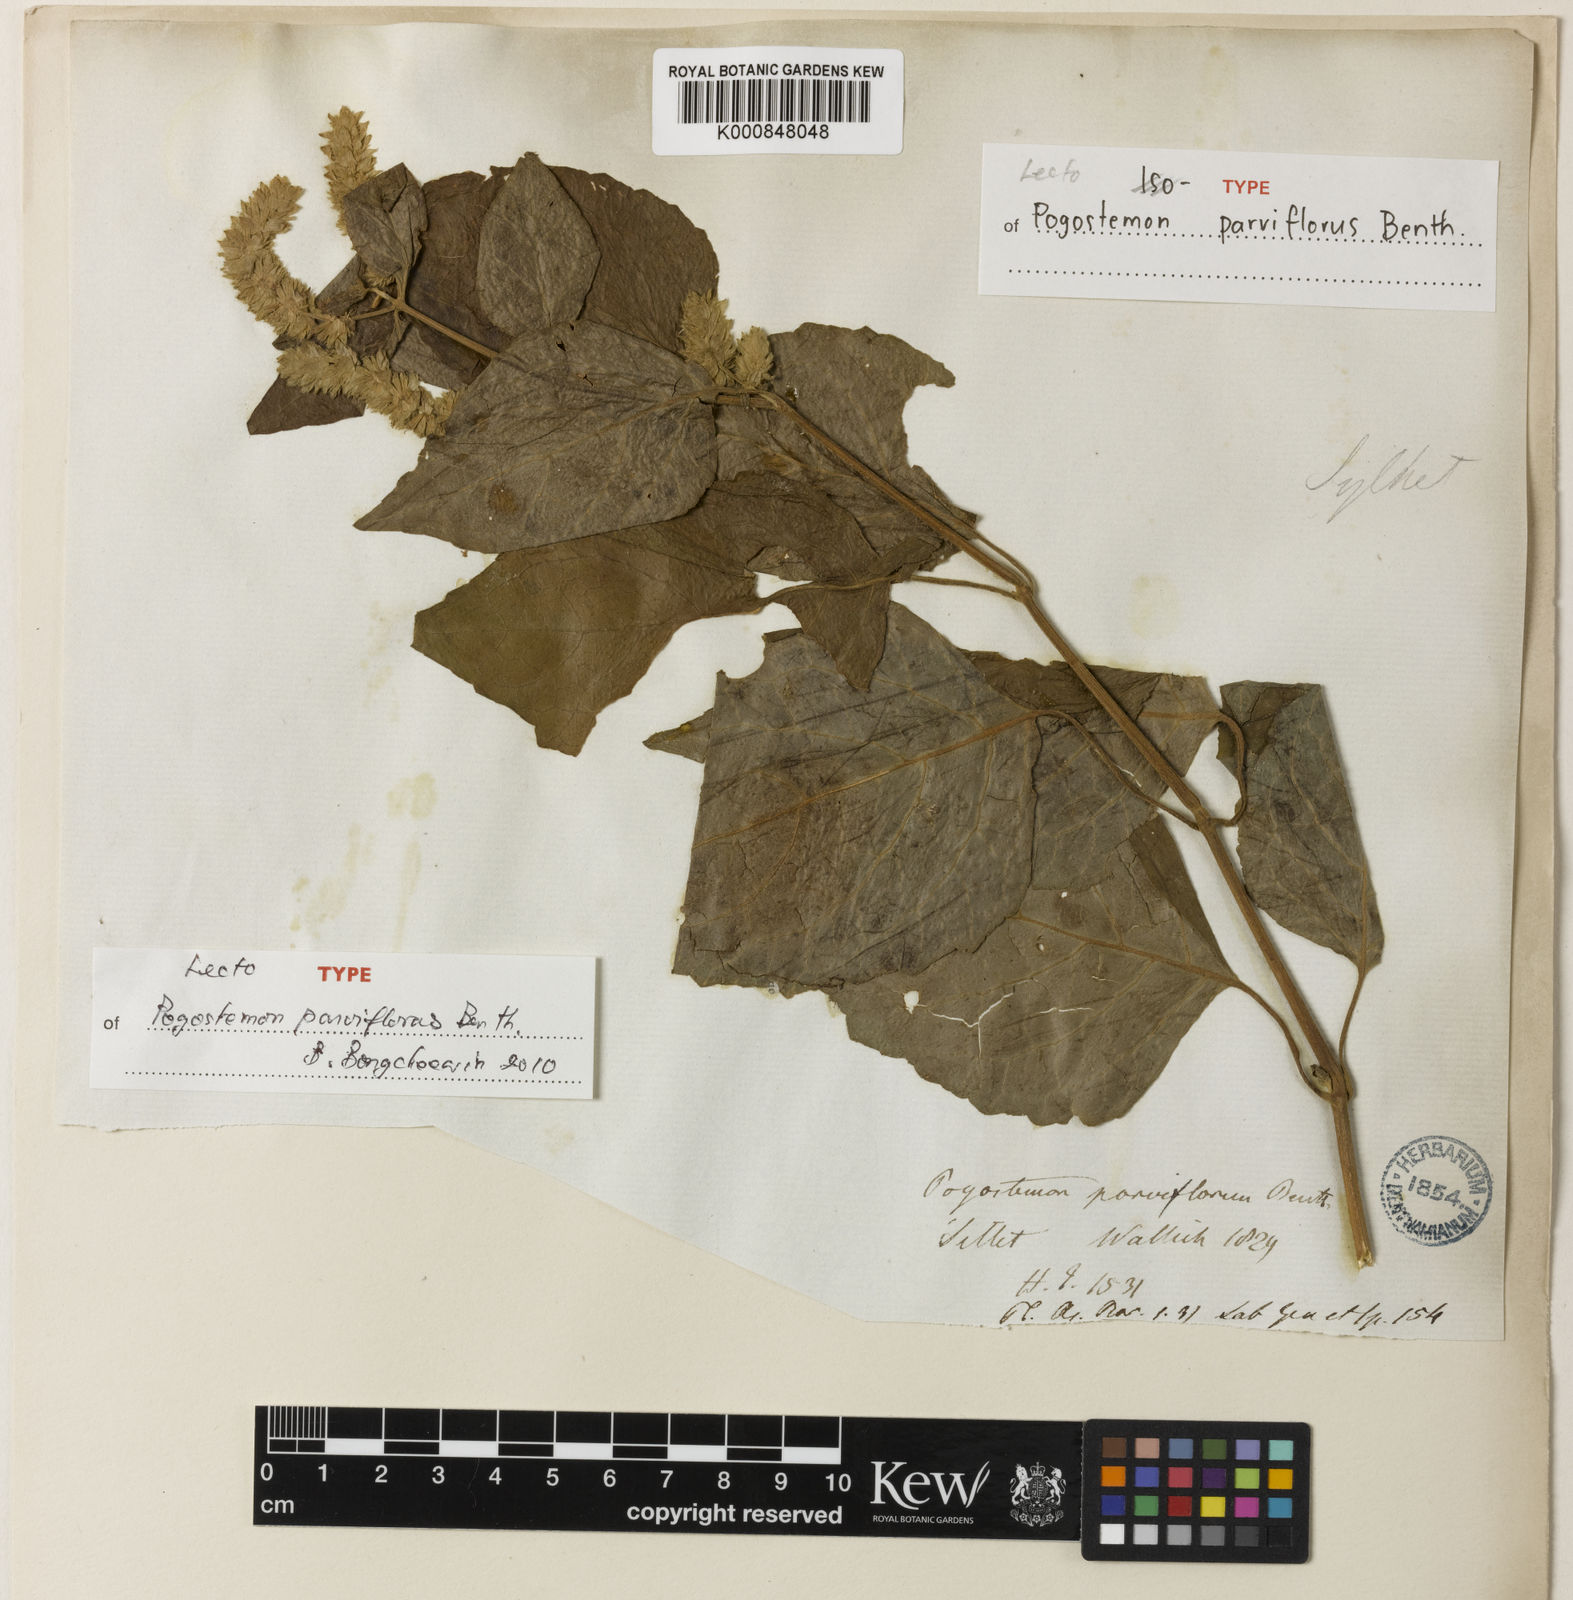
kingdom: Plantae
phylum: Tracheophyta
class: Magnoliopsida
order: Lamiales
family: Lamiaceae
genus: Pogostemon
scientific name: Pogostemon
